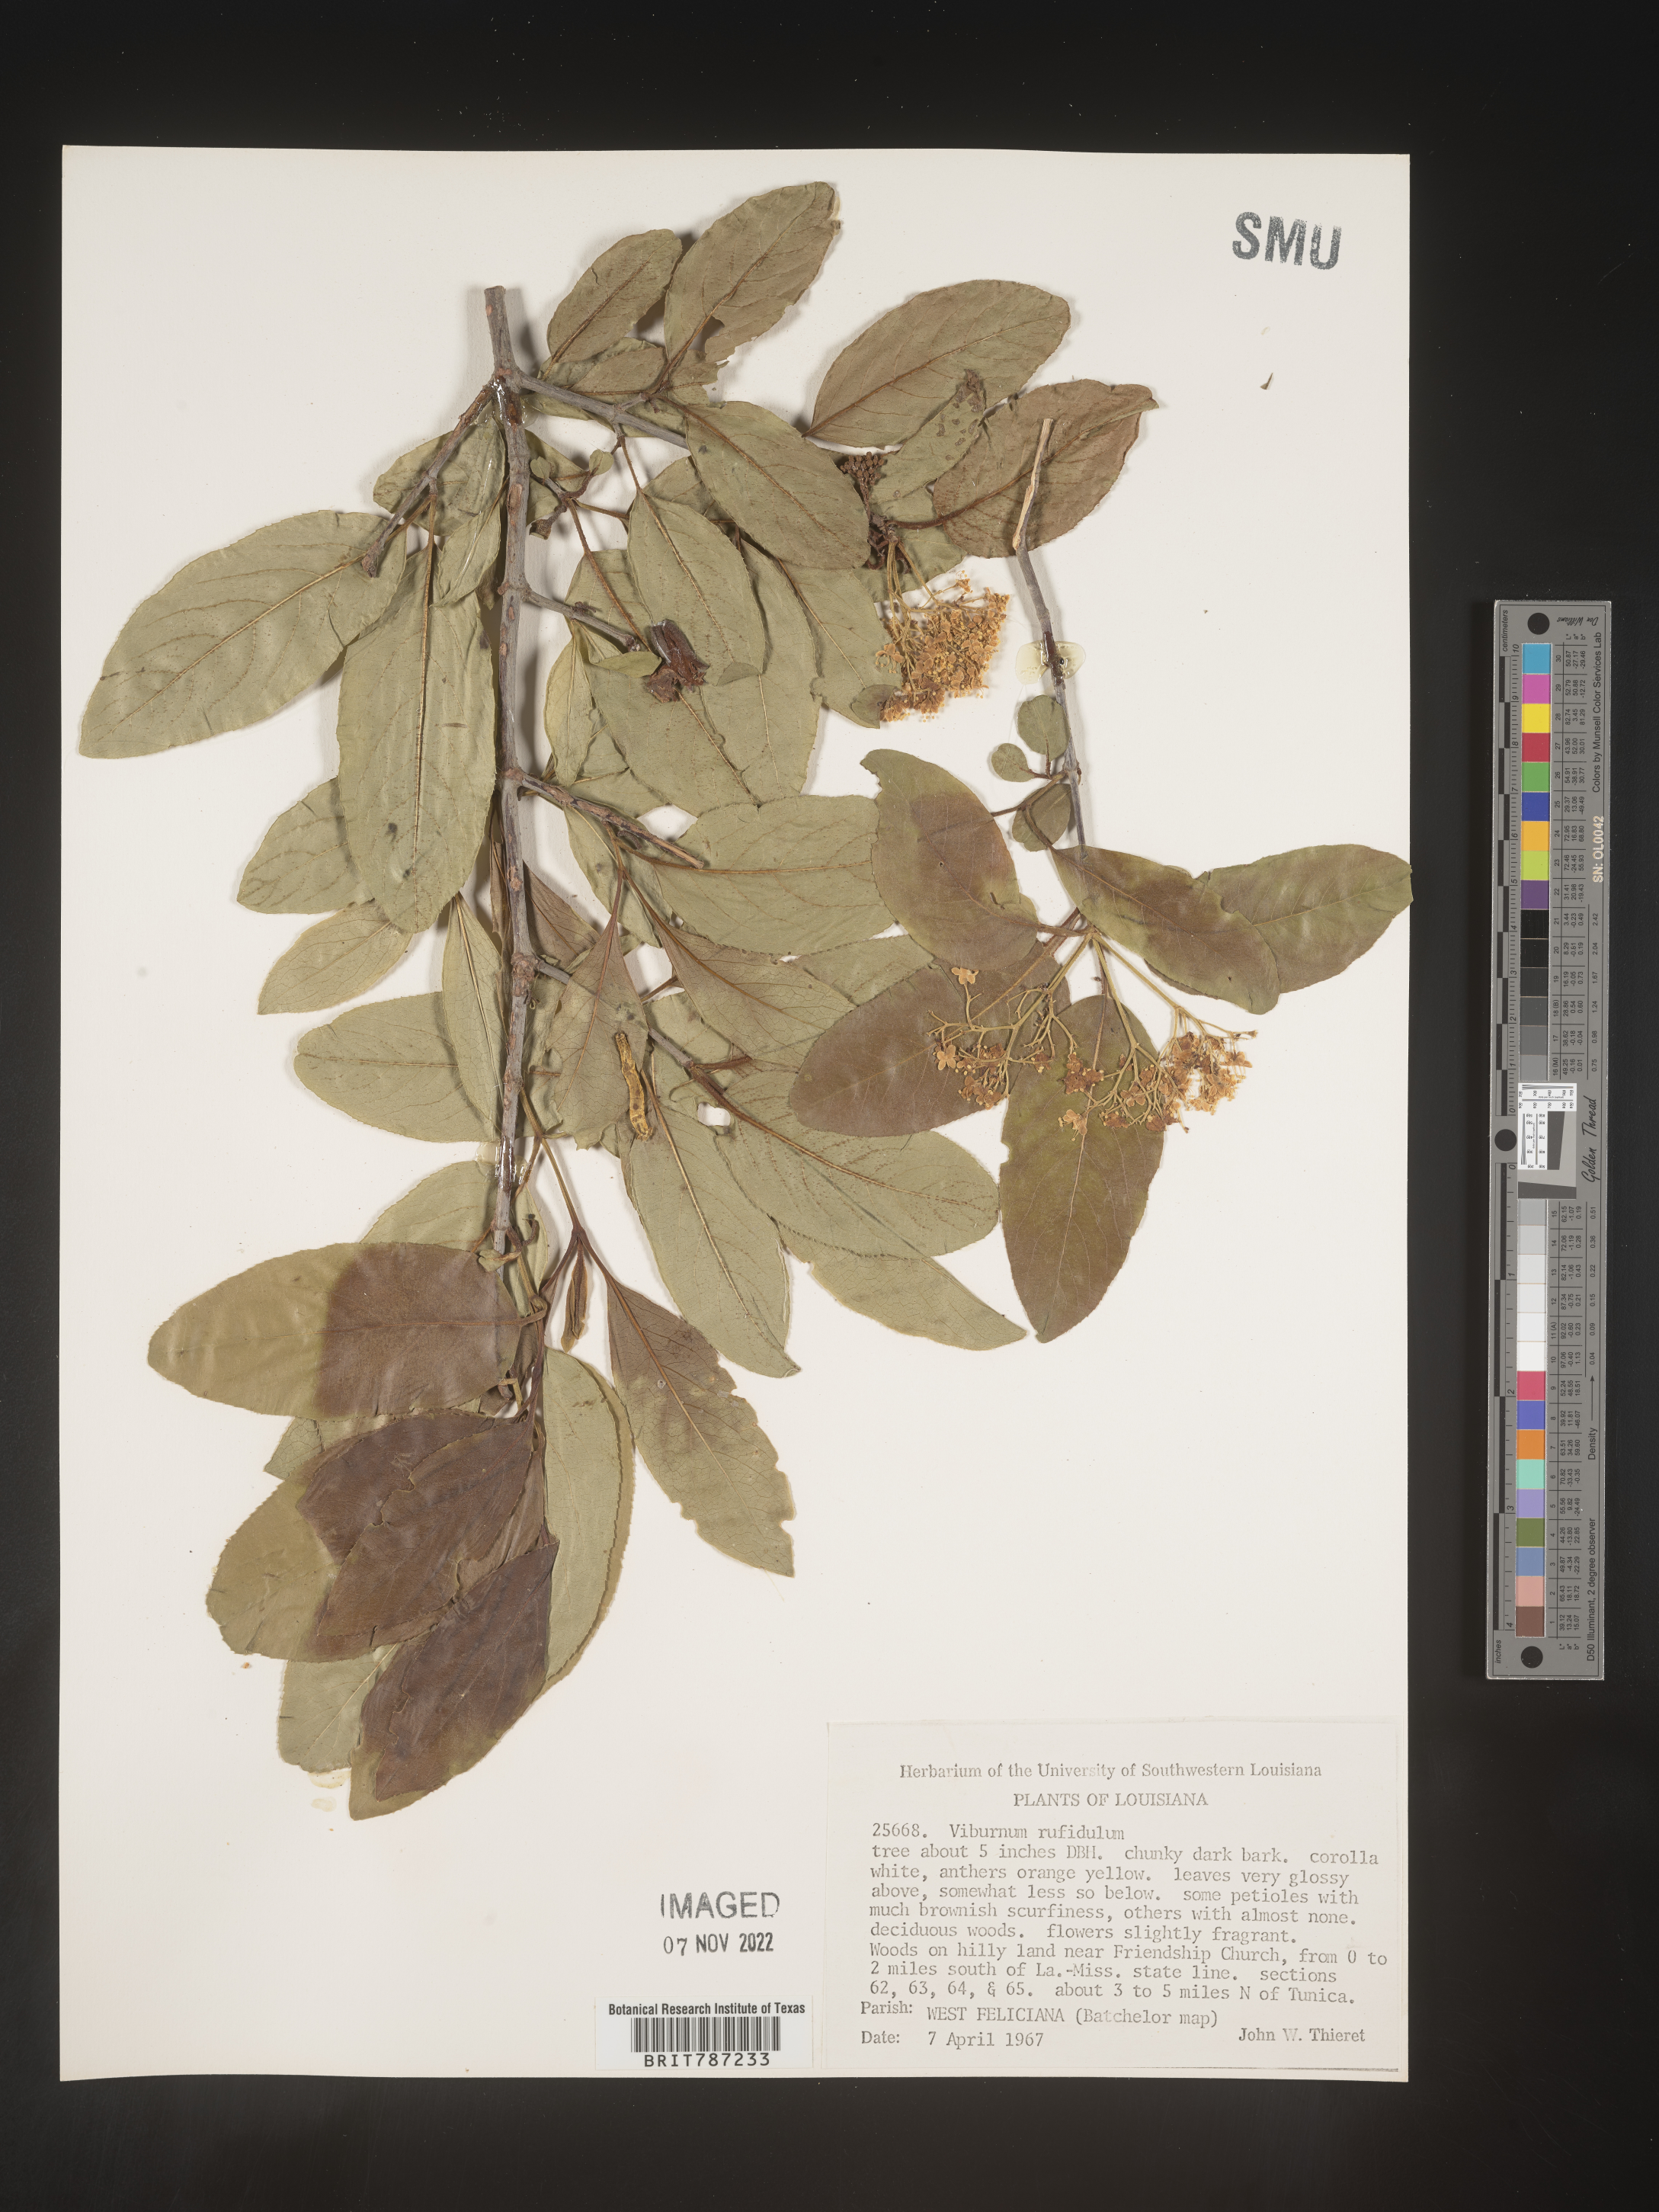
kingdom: Plantae
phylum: Tracheophyta
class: Magnoliopsida
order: Dipsacales
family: Viburnaceae
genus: Viburnum
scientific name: Viburnum rufidulum
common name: Blue haw
